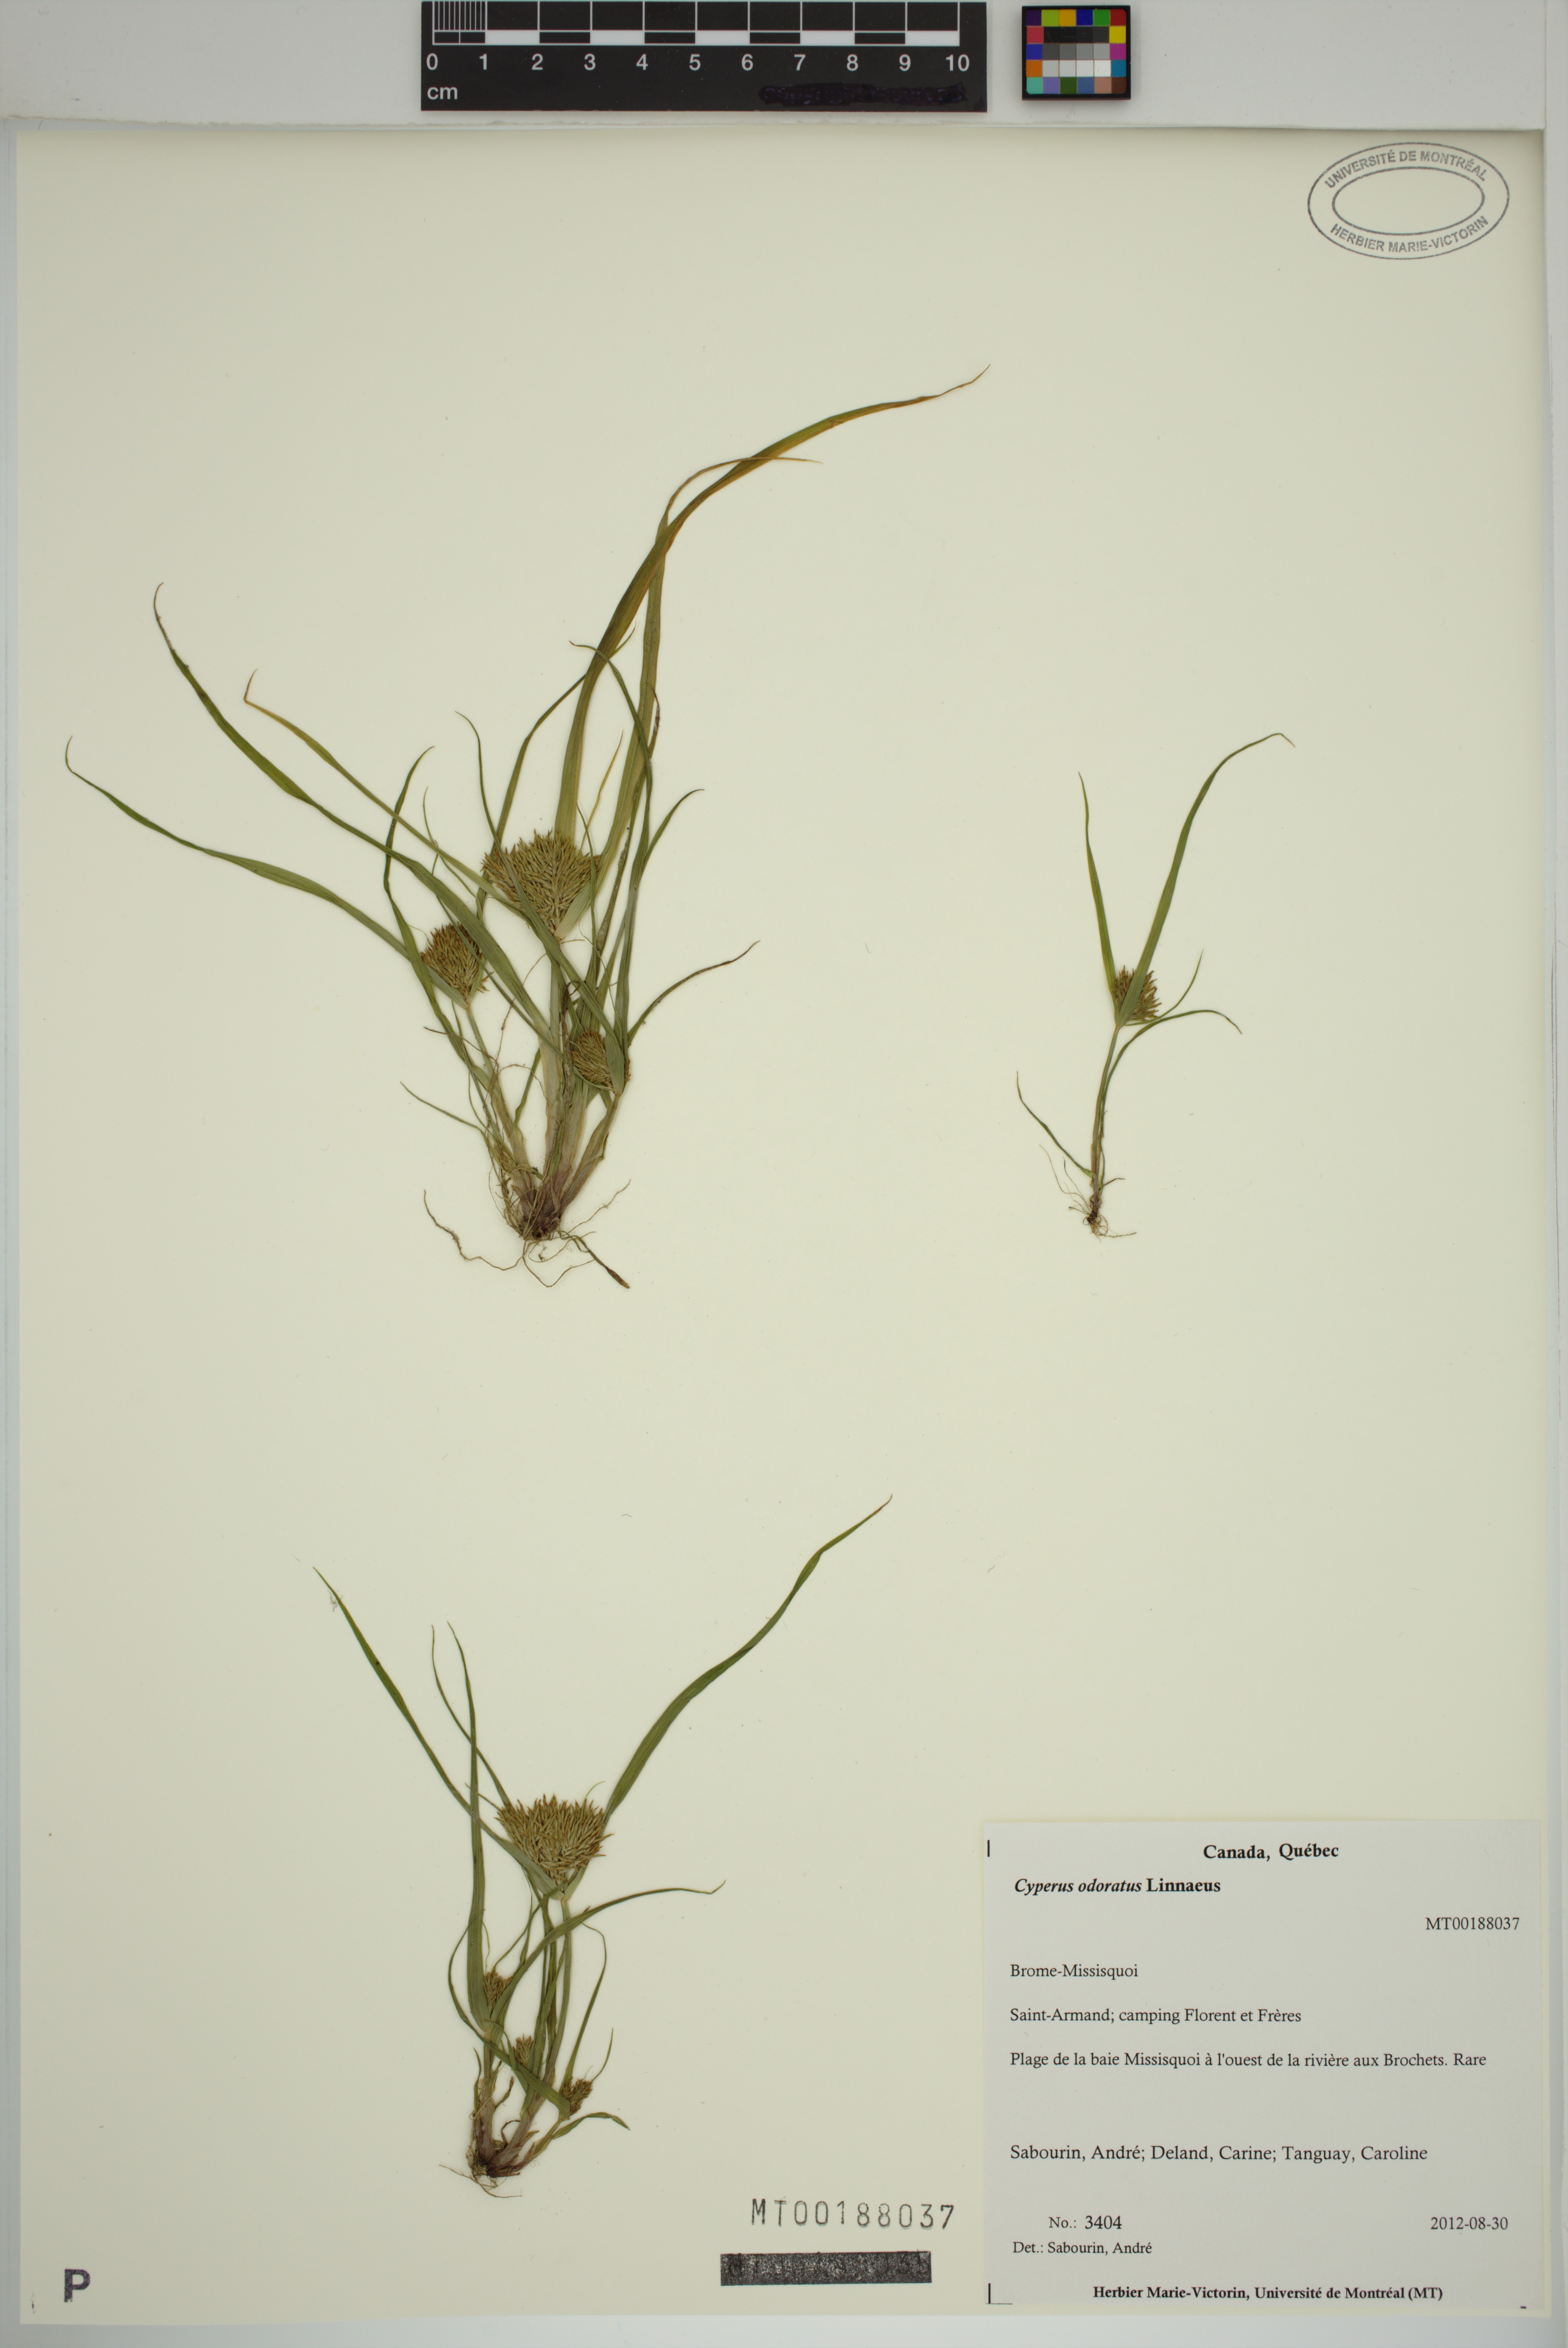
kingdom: Plantae
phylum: Tracheophyta
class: Liliopsida
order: Poales
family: Cyperaceae
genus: Cyperus
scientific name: Cyperus odoratus
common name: Fragrant flatsedge
